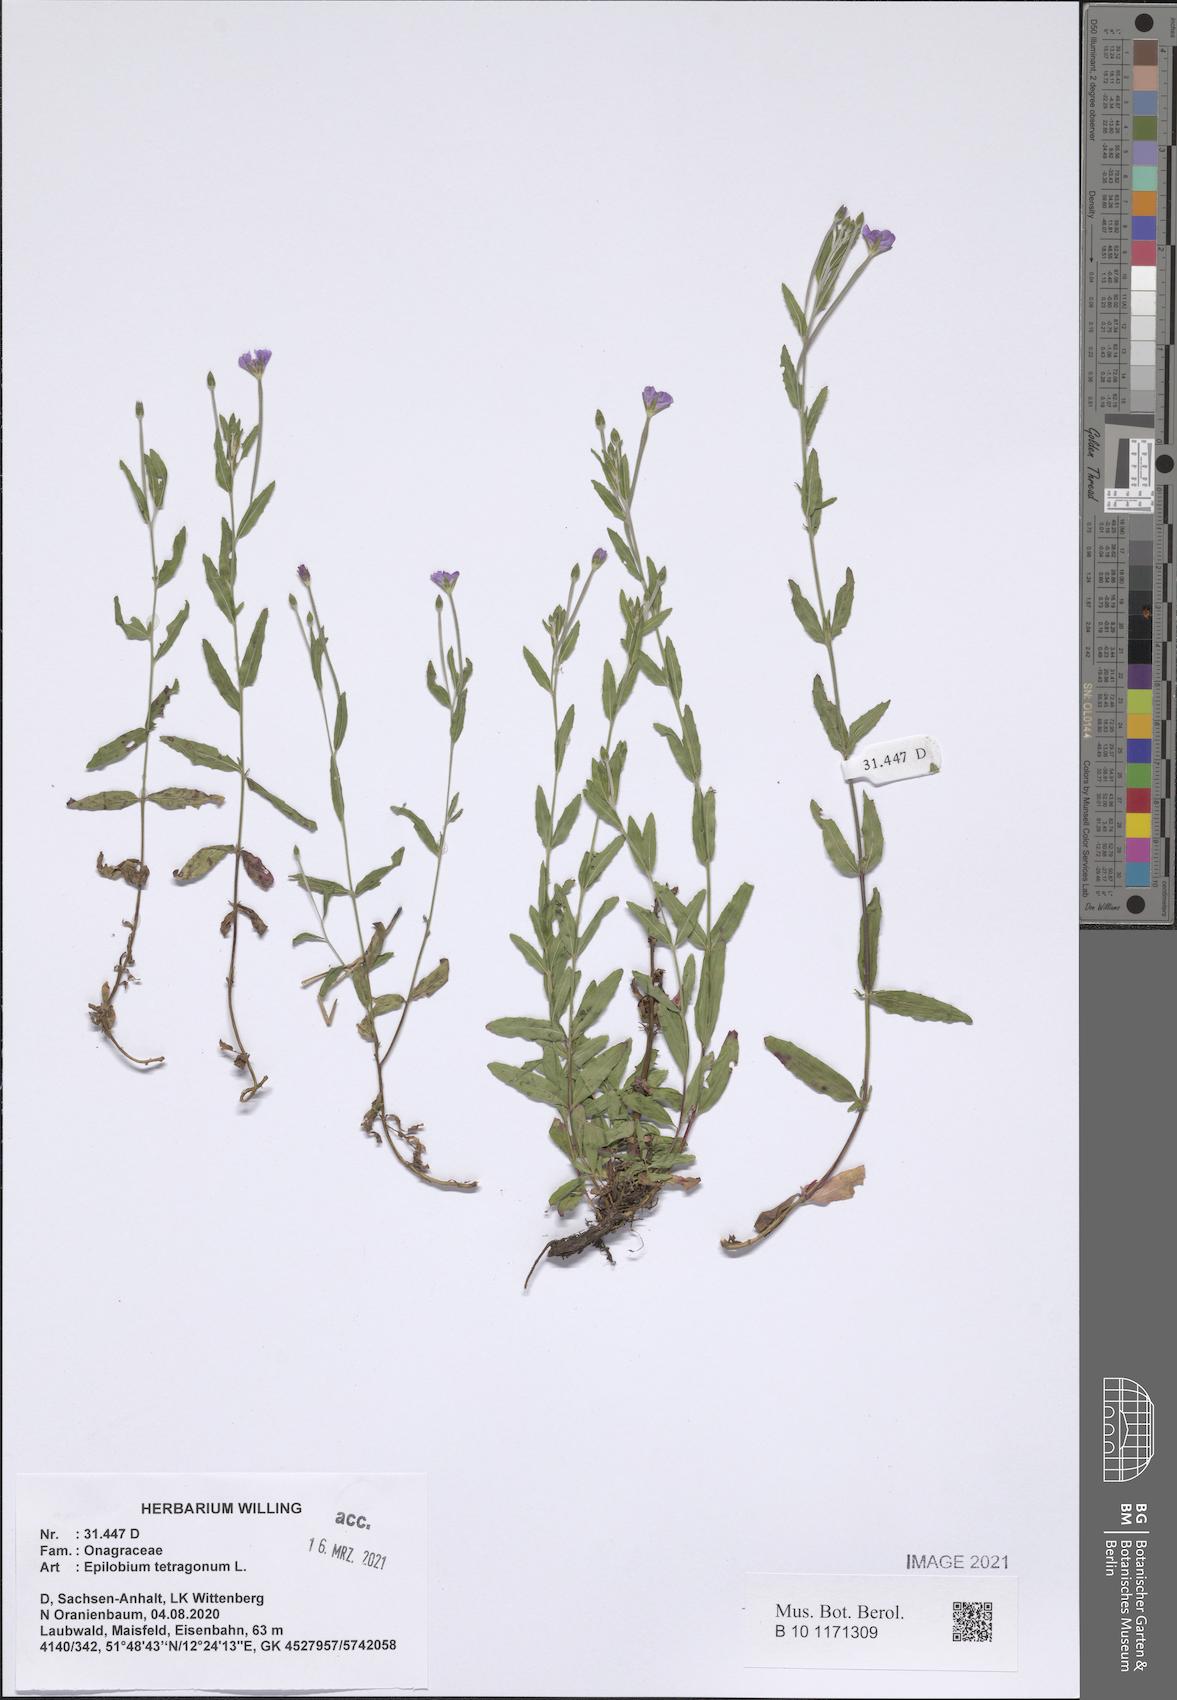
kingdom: Plantae
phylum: Tracheophyta
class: Magnoliopsida
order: Myrtales
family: Onagraceae
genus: Epilobium
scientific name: Epilobium tetragonum
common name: Square-stemmed willowherb
